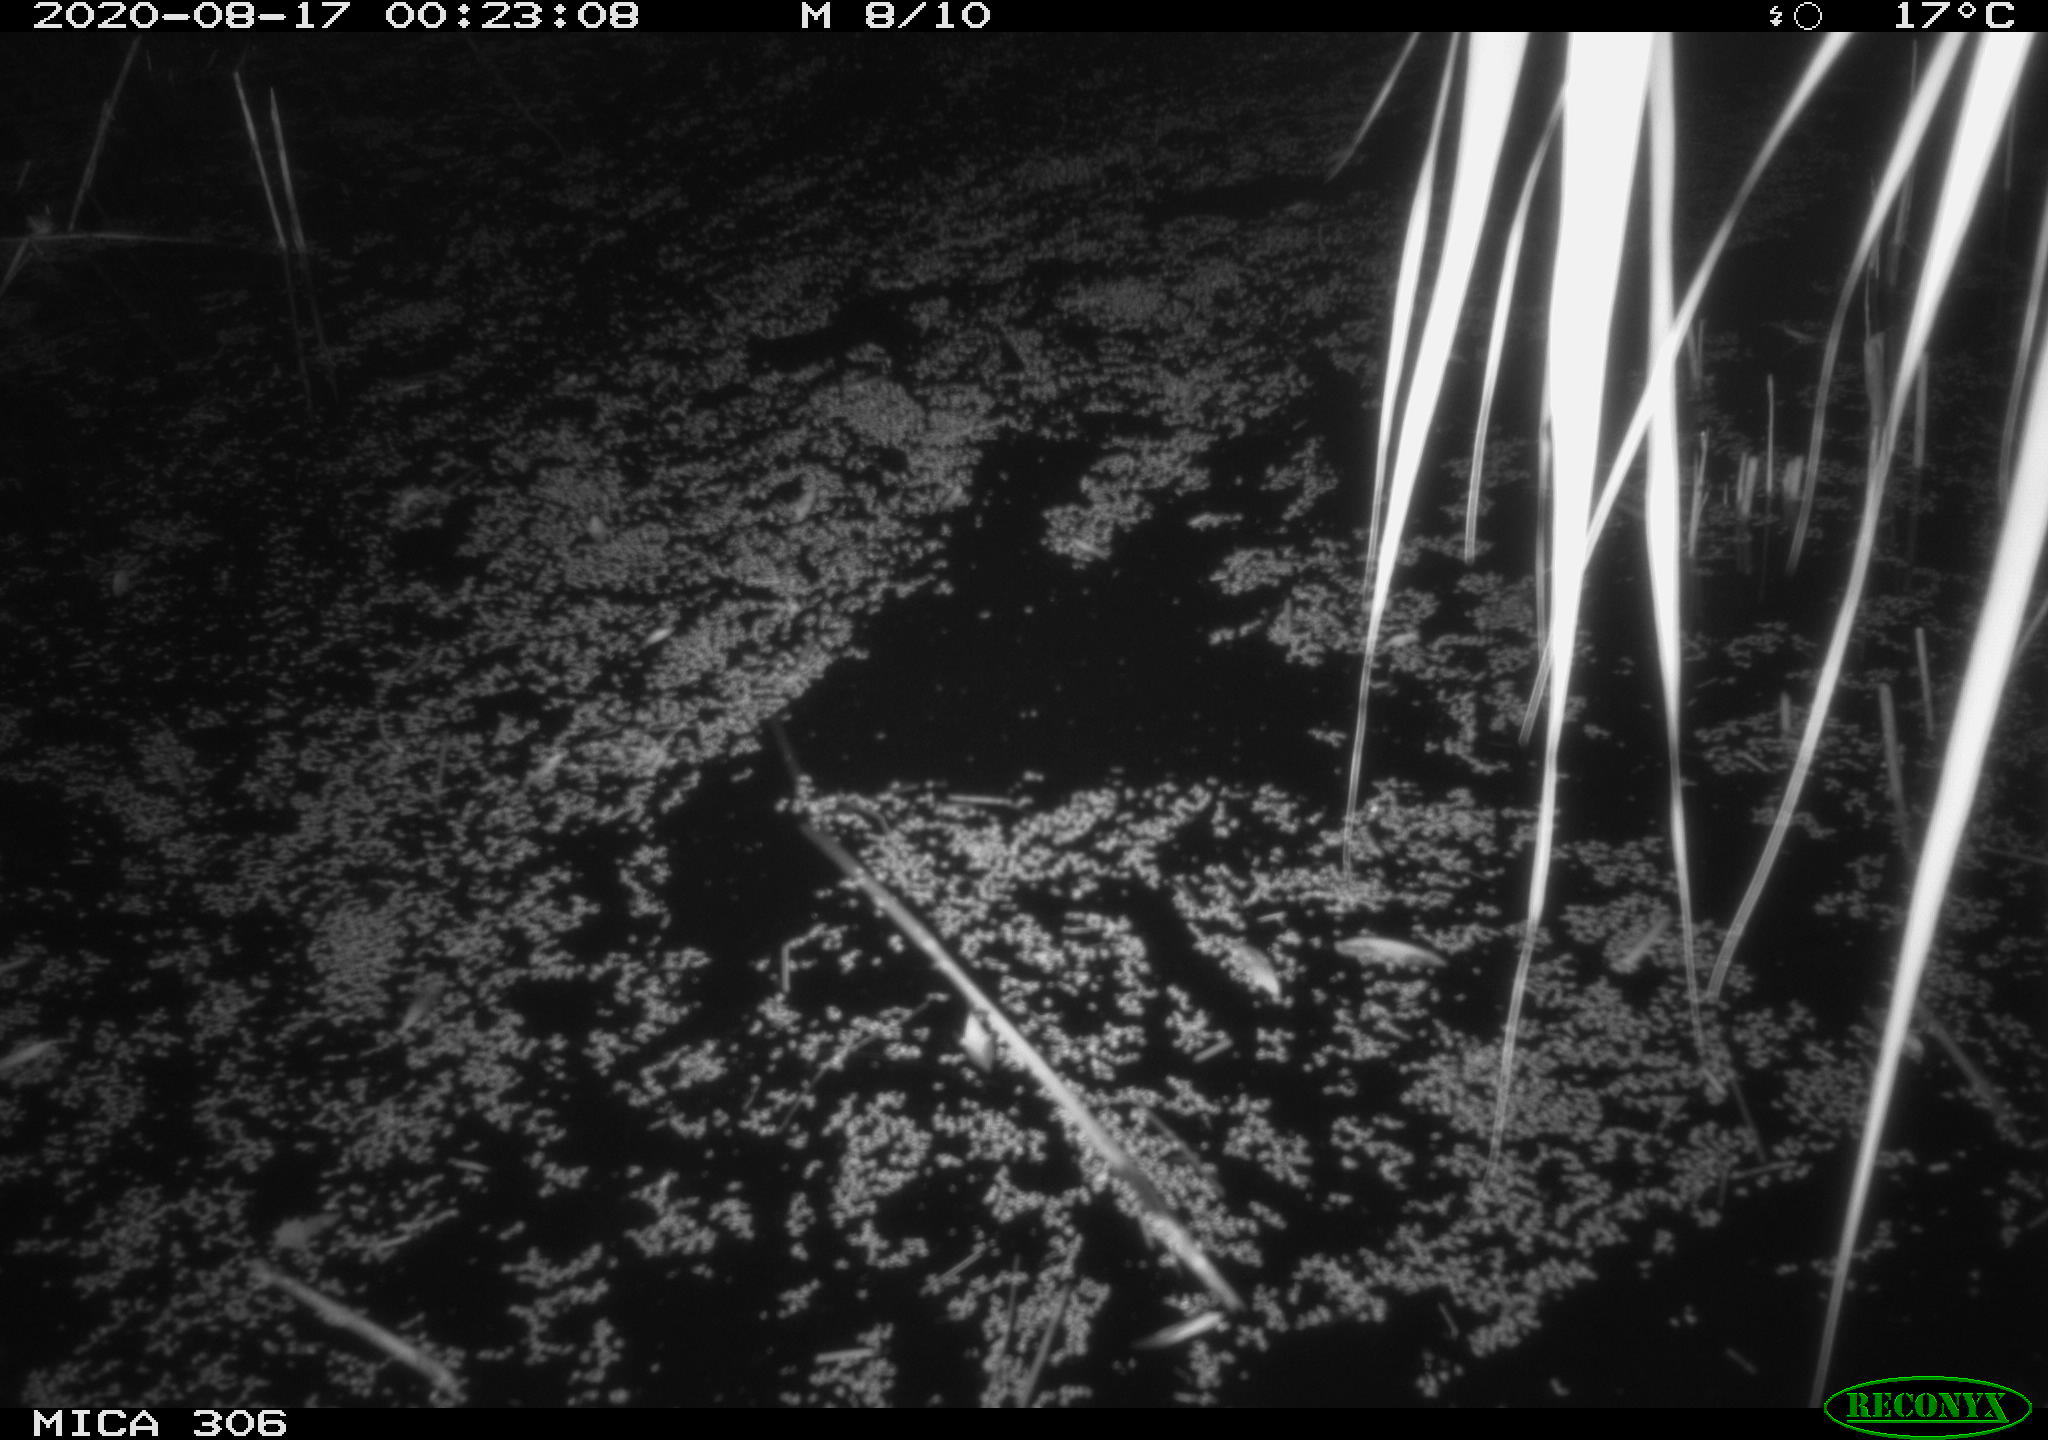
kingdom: Animalia
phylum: Chordata
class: Mammalia
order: Rodentia
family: Muridae
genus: Rattus
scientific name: Rattus norvegicus
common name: Brown rat
